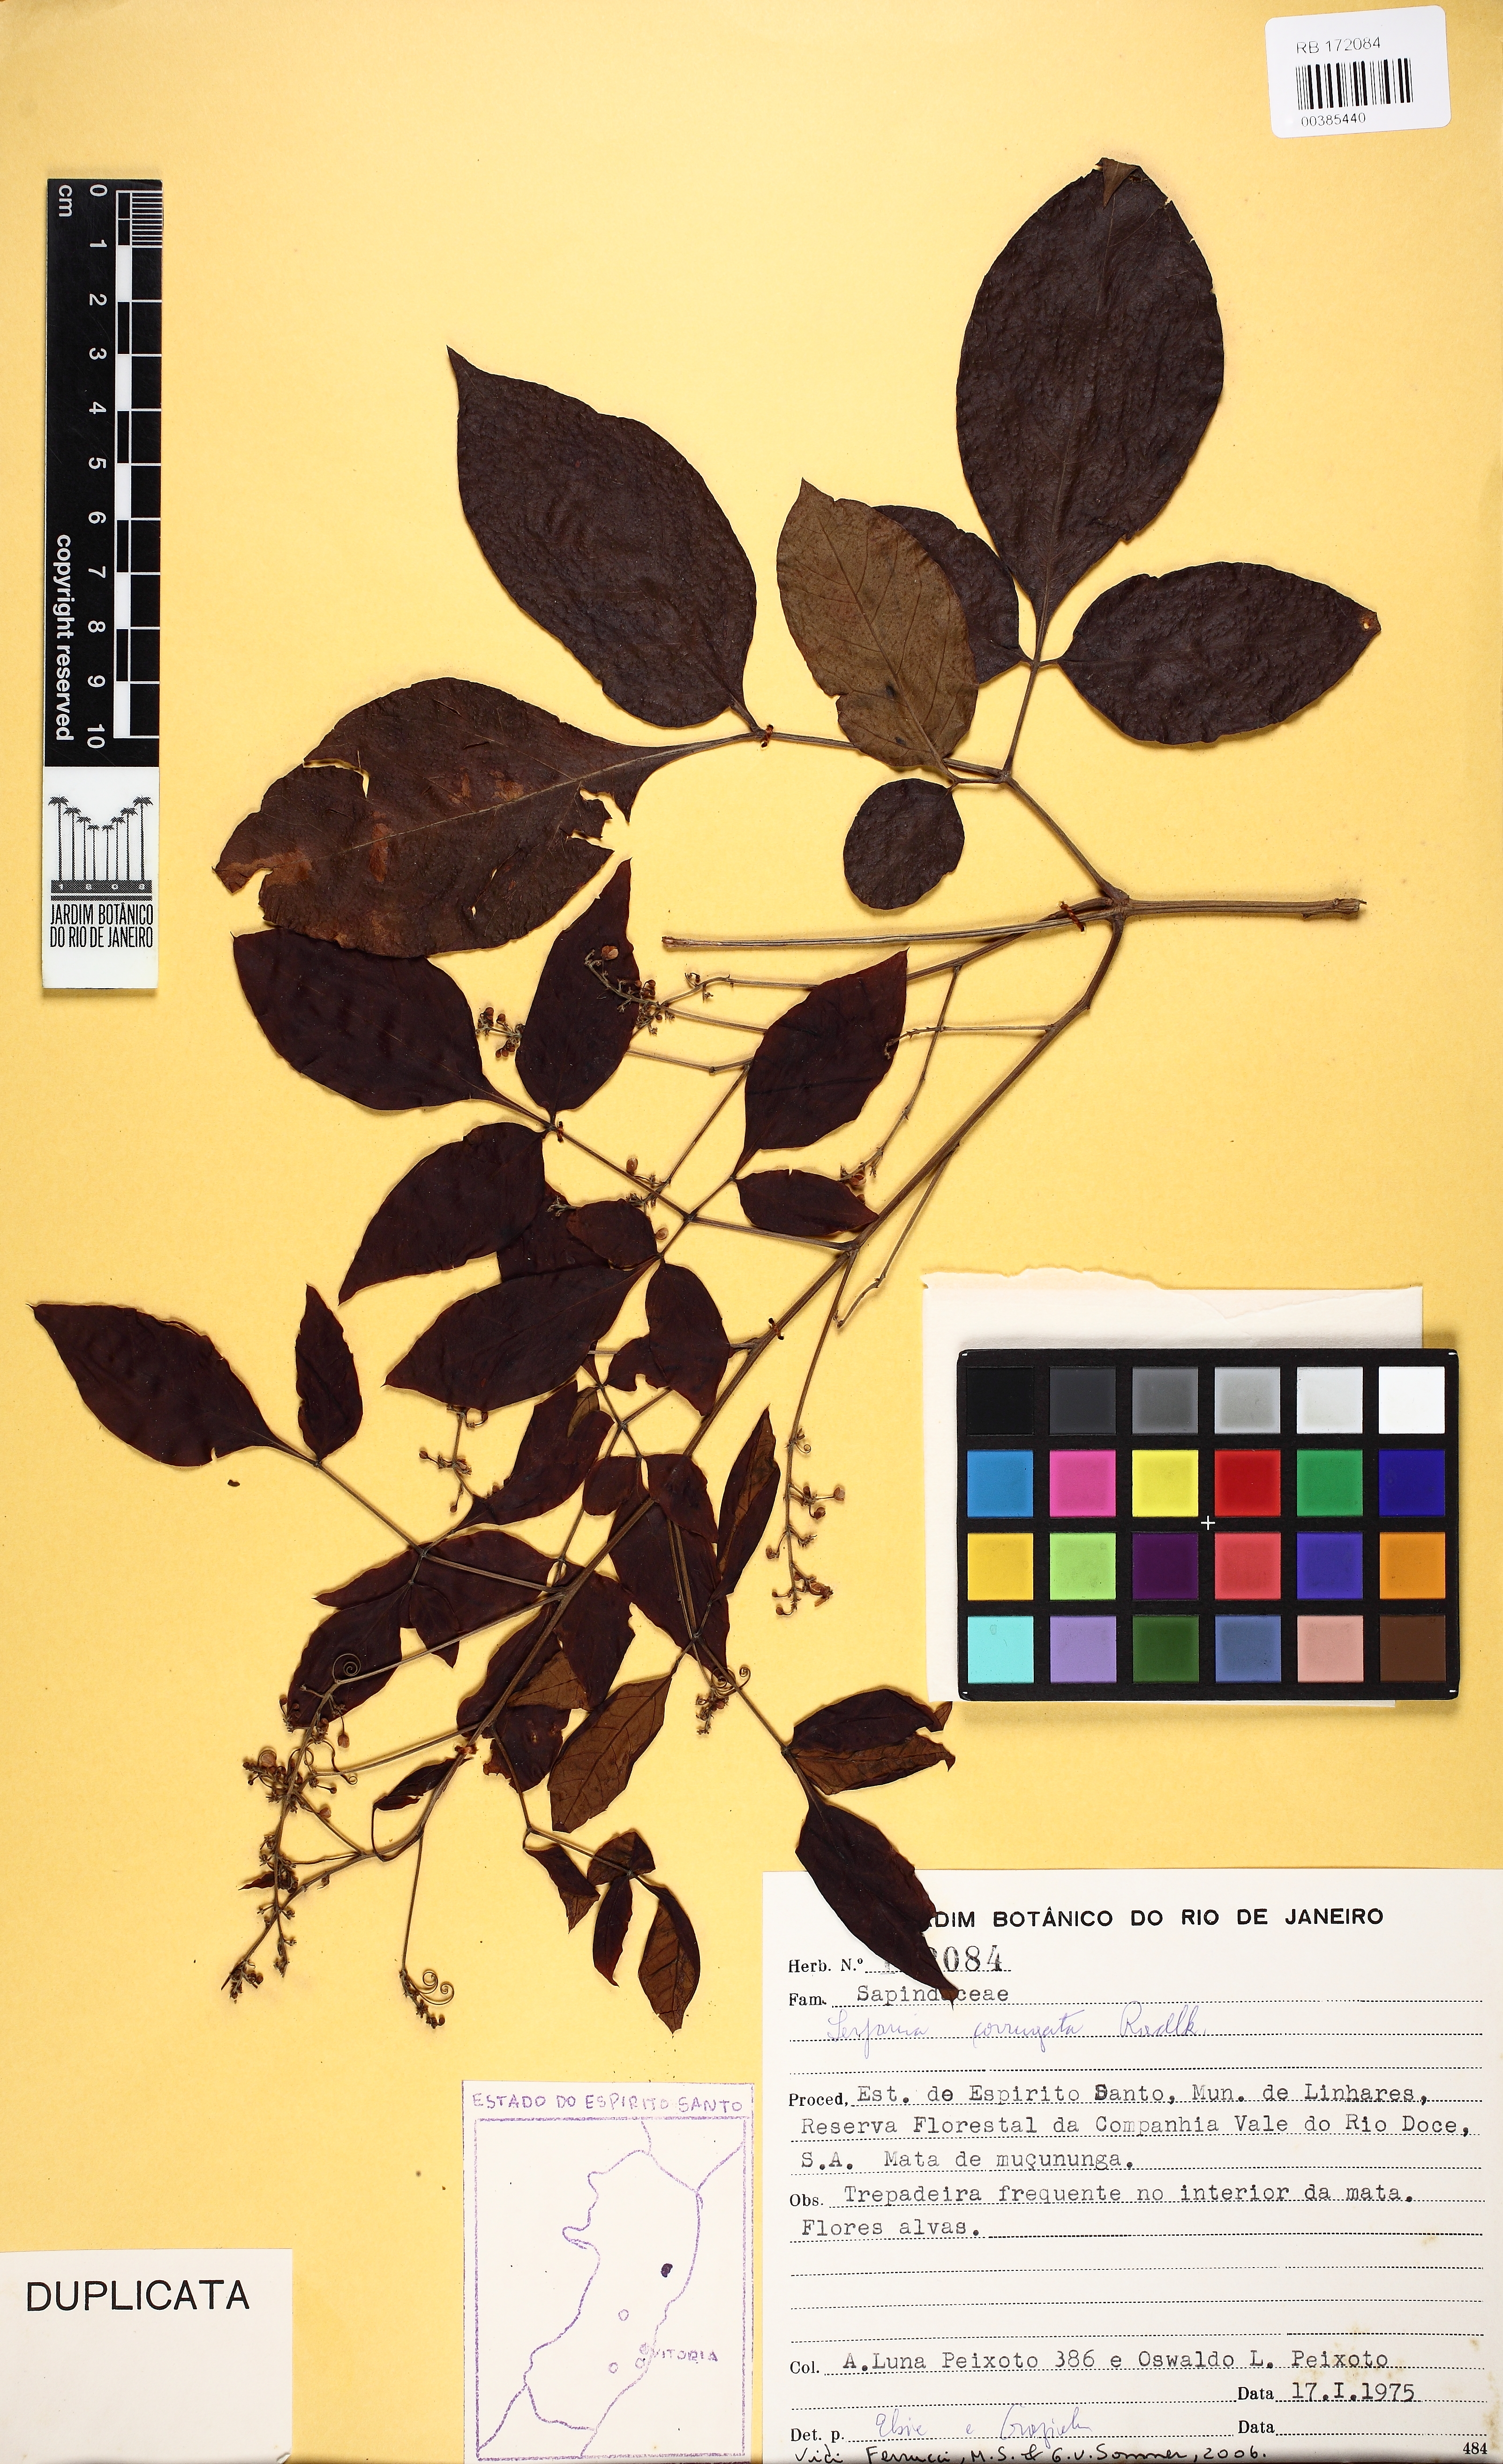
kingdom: Plantae
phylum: Tracheophyta
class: Magnoliopsida
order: Sapindales
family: Sapindaceae
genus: Serjania
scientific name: Serjania corrugata
